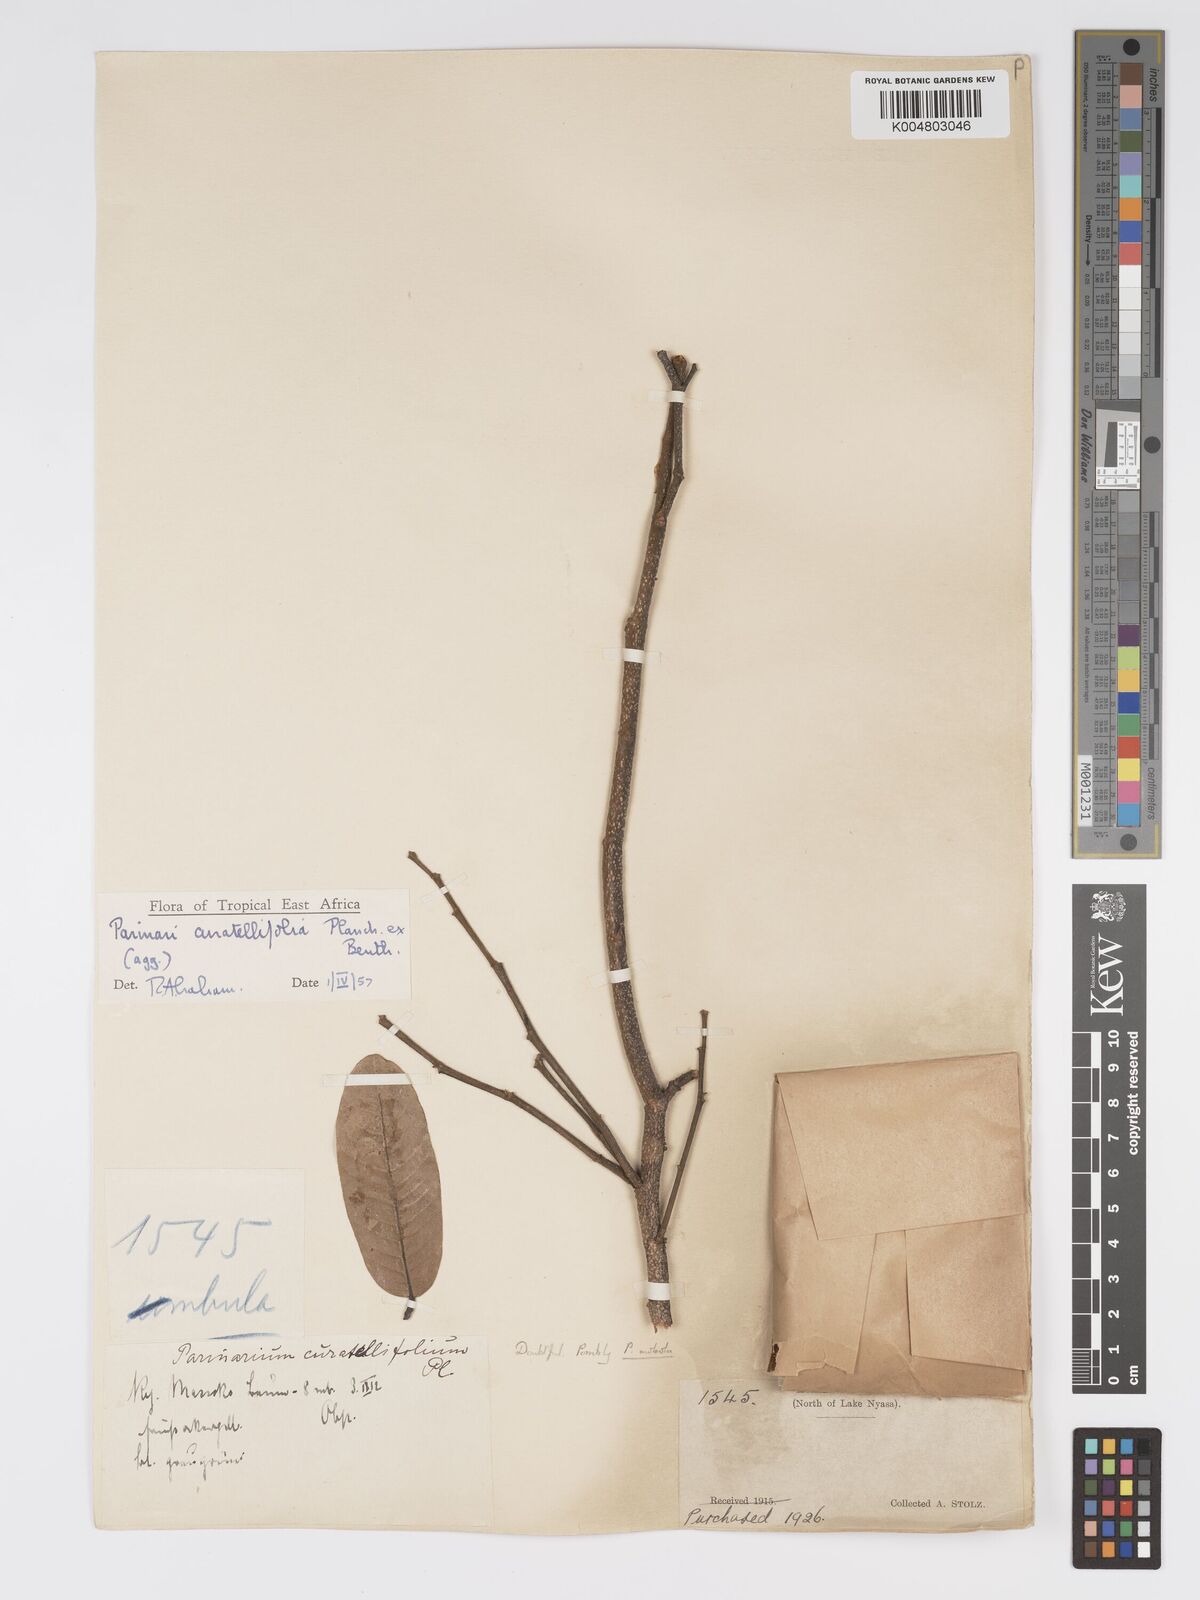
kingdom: Plantae
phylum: Tracheophyta
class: Magnoliopsida
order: Malpighiales
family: Chrysobalanaceae
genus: Parinari
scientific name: Parinari curatellifolia
